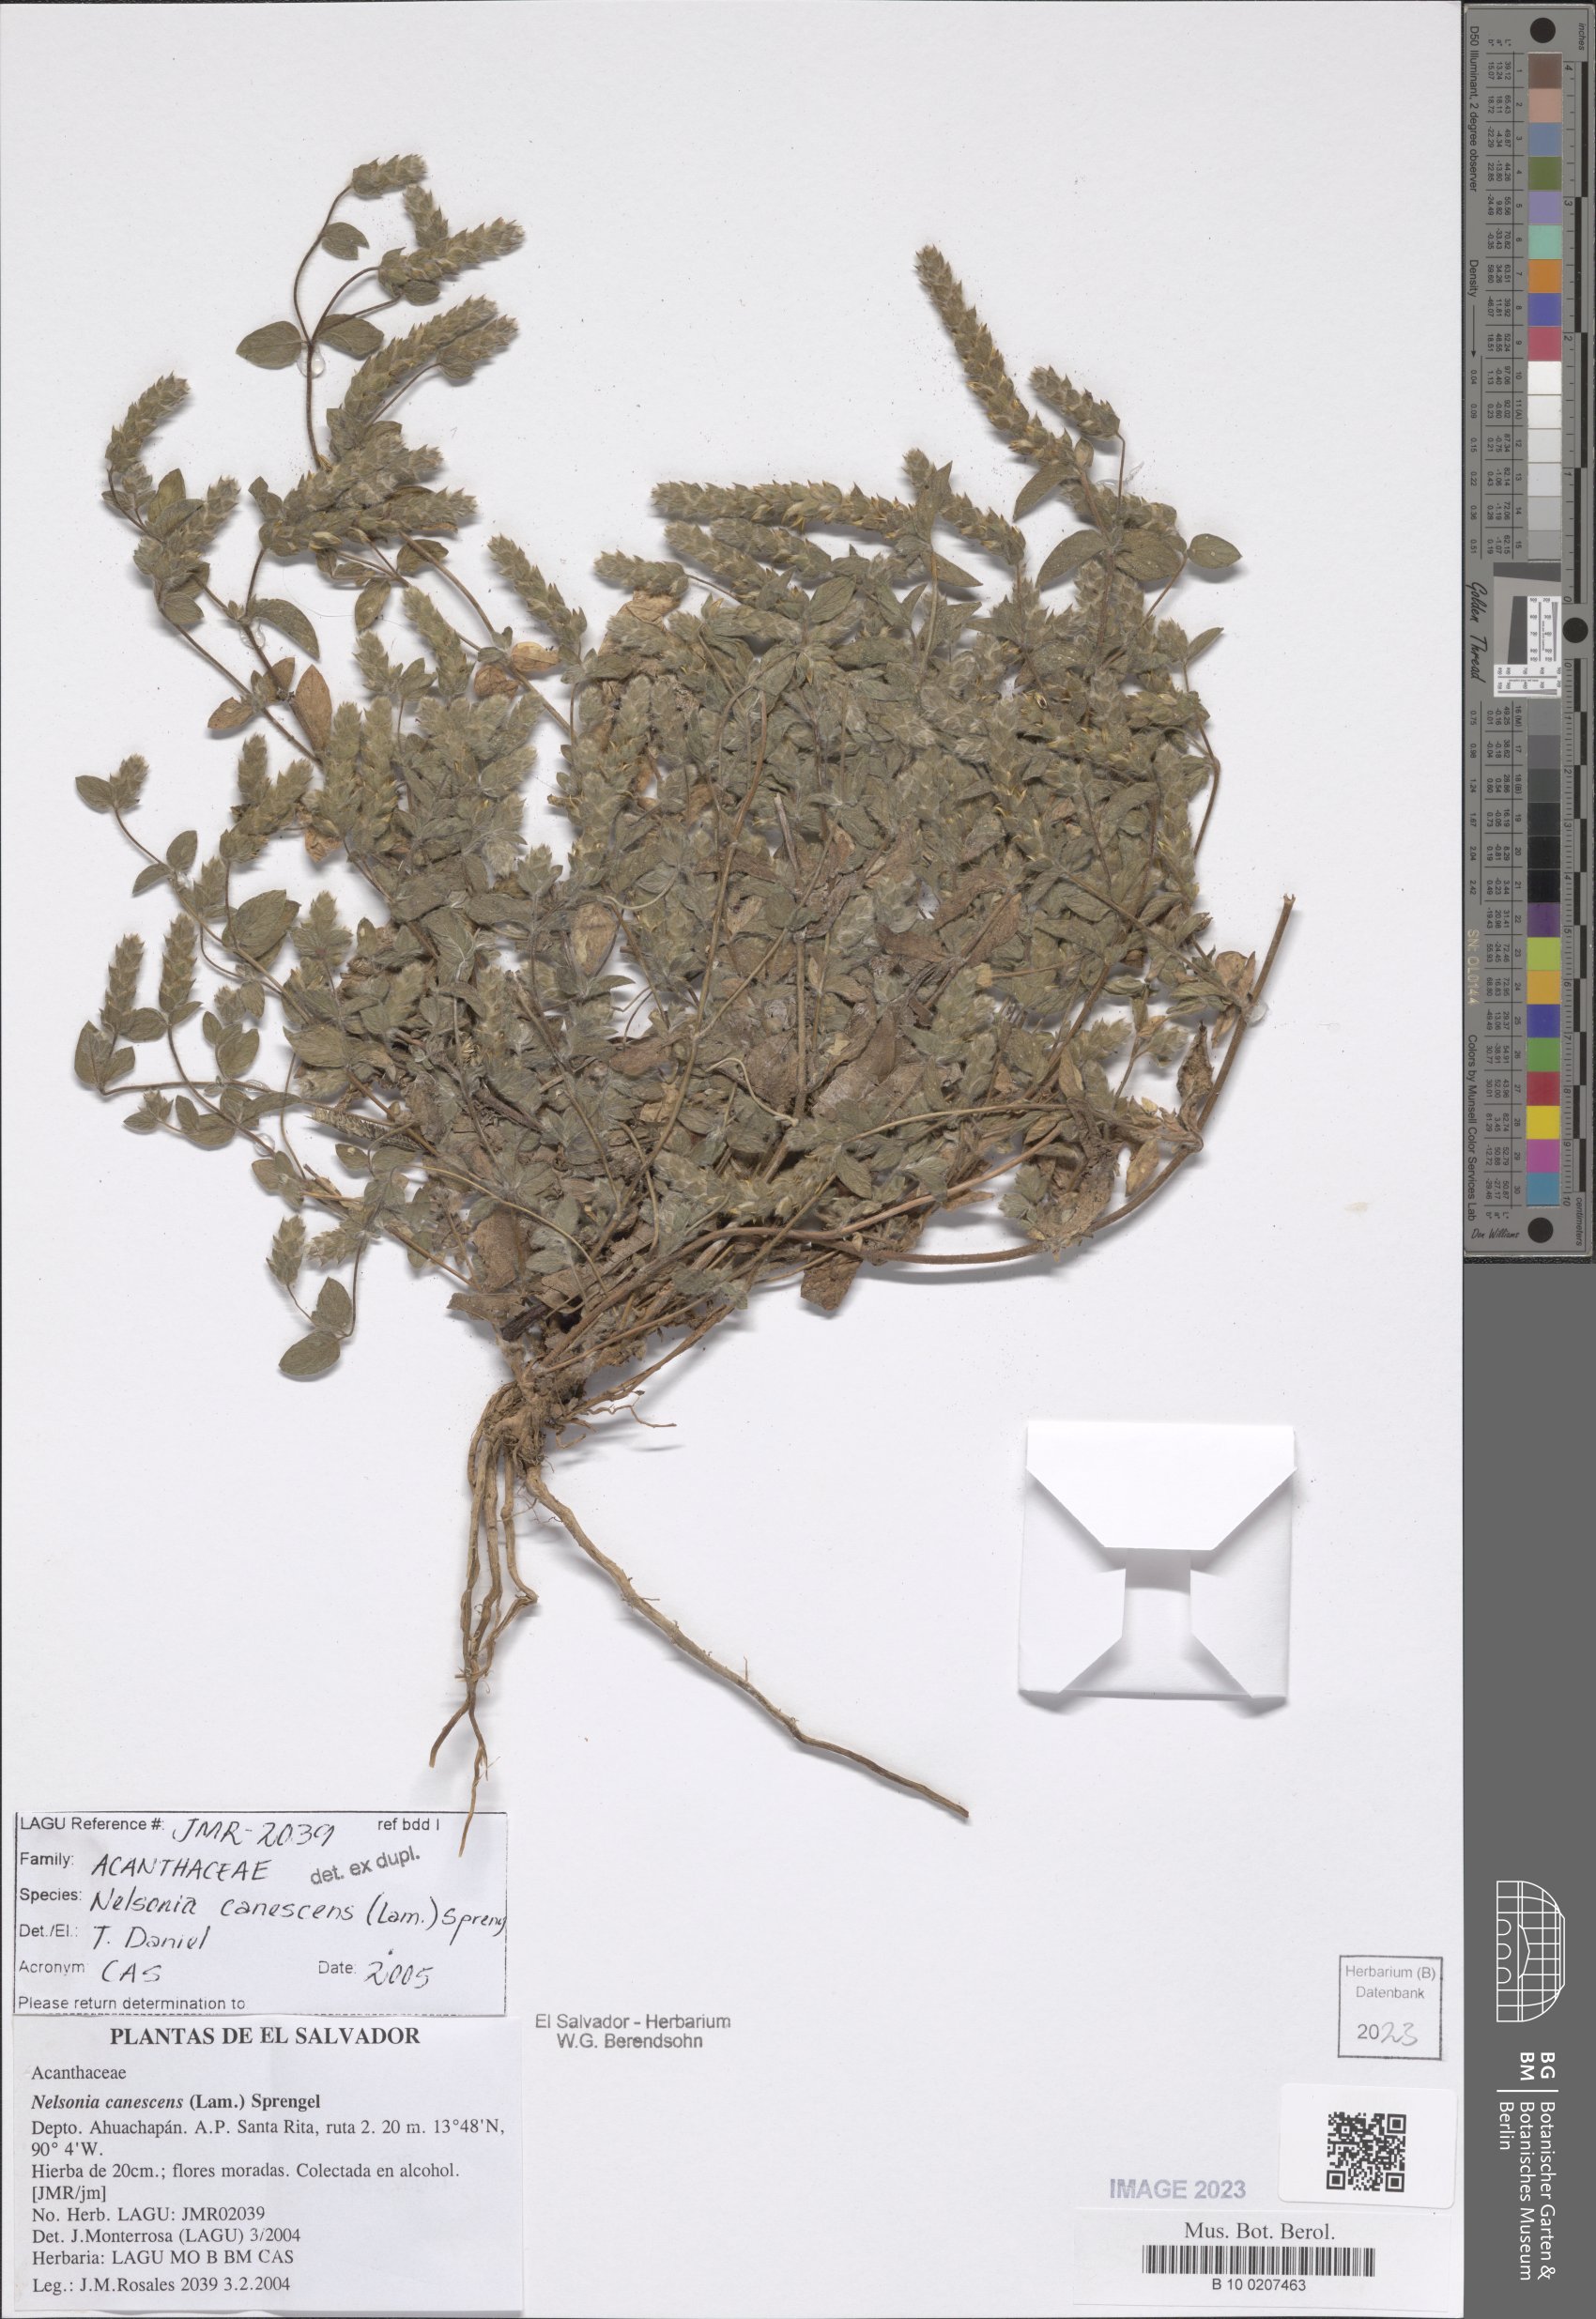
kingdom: Plantae
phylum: Tracheophyta
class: Magnoliopsida
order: Lamiales
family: Acanthaceae
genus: Nelsonia
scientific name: Nelsonia canescens
